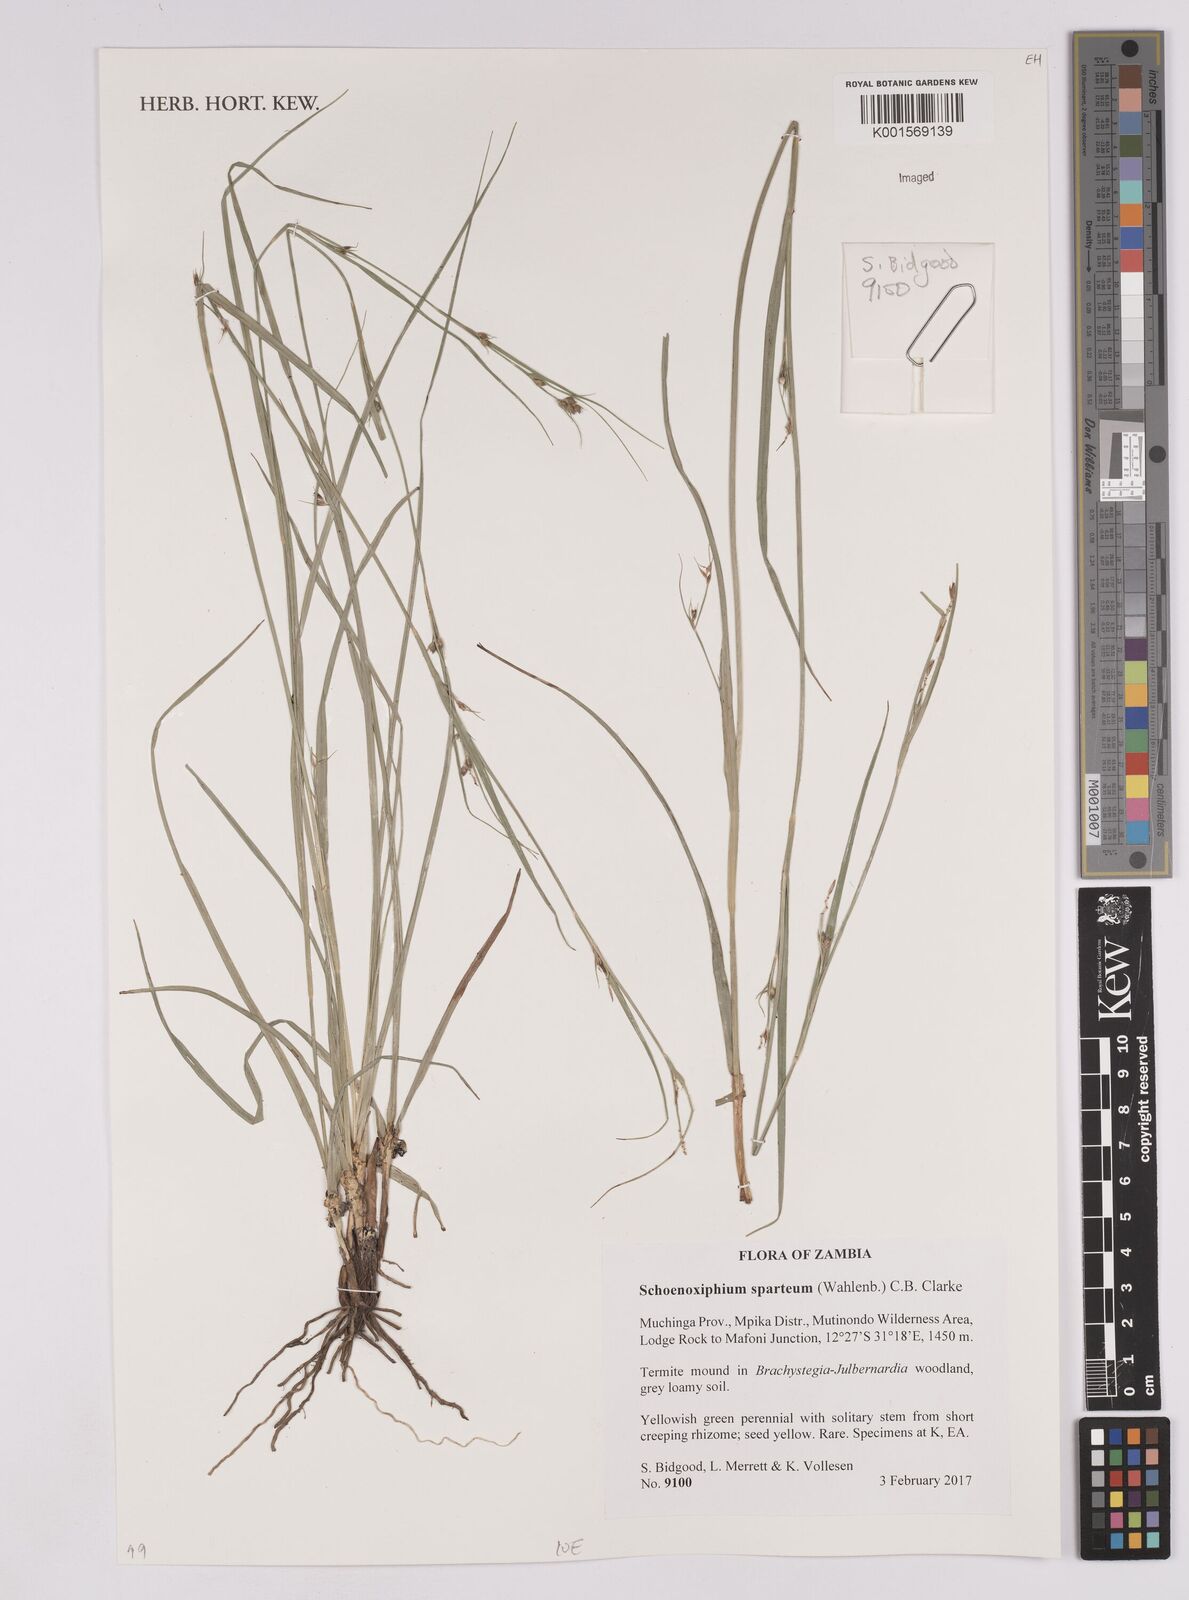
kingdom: Plantae
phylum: Tracheophyta
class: Liliopsida
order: Poales
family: Cyperaceae
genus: Carex
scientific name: Carex spartea
